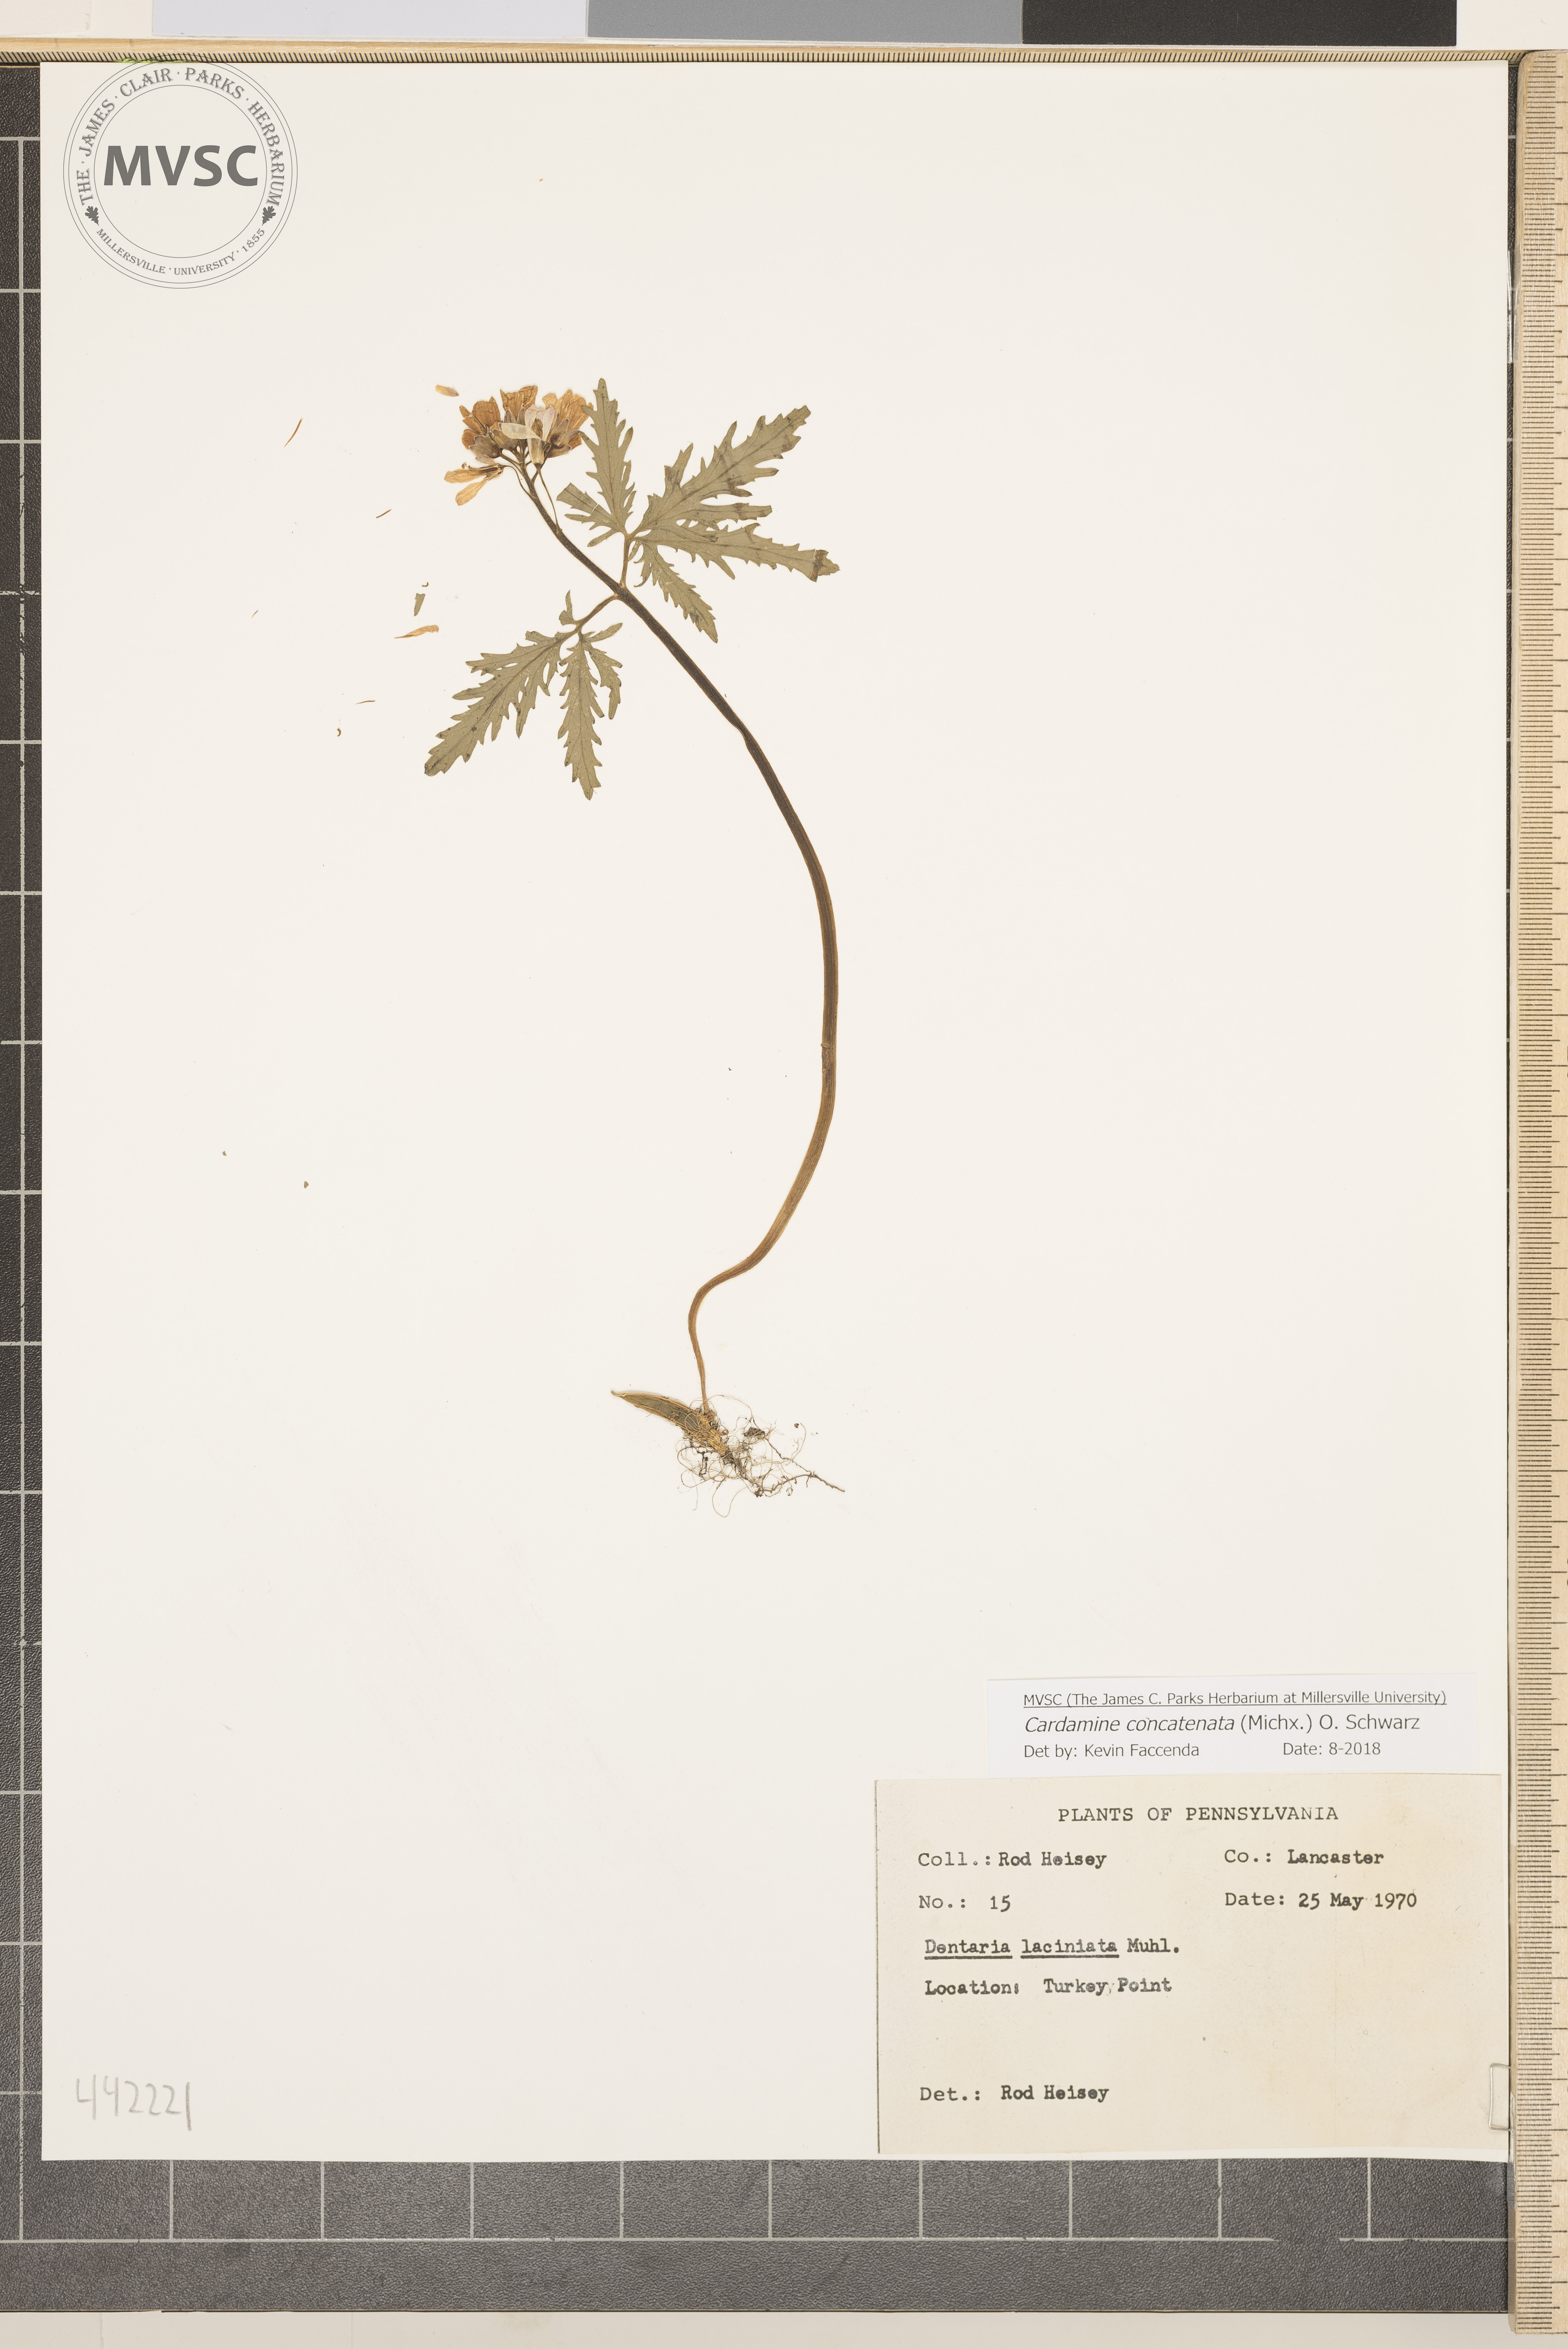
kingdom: Plantae
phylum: Tracheophyta
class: Magnoliopsida
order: Brassicales
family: Brassicaceae
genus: Cardamine
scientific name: Cardamine concatenata
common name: Cut-leaf toothcup
